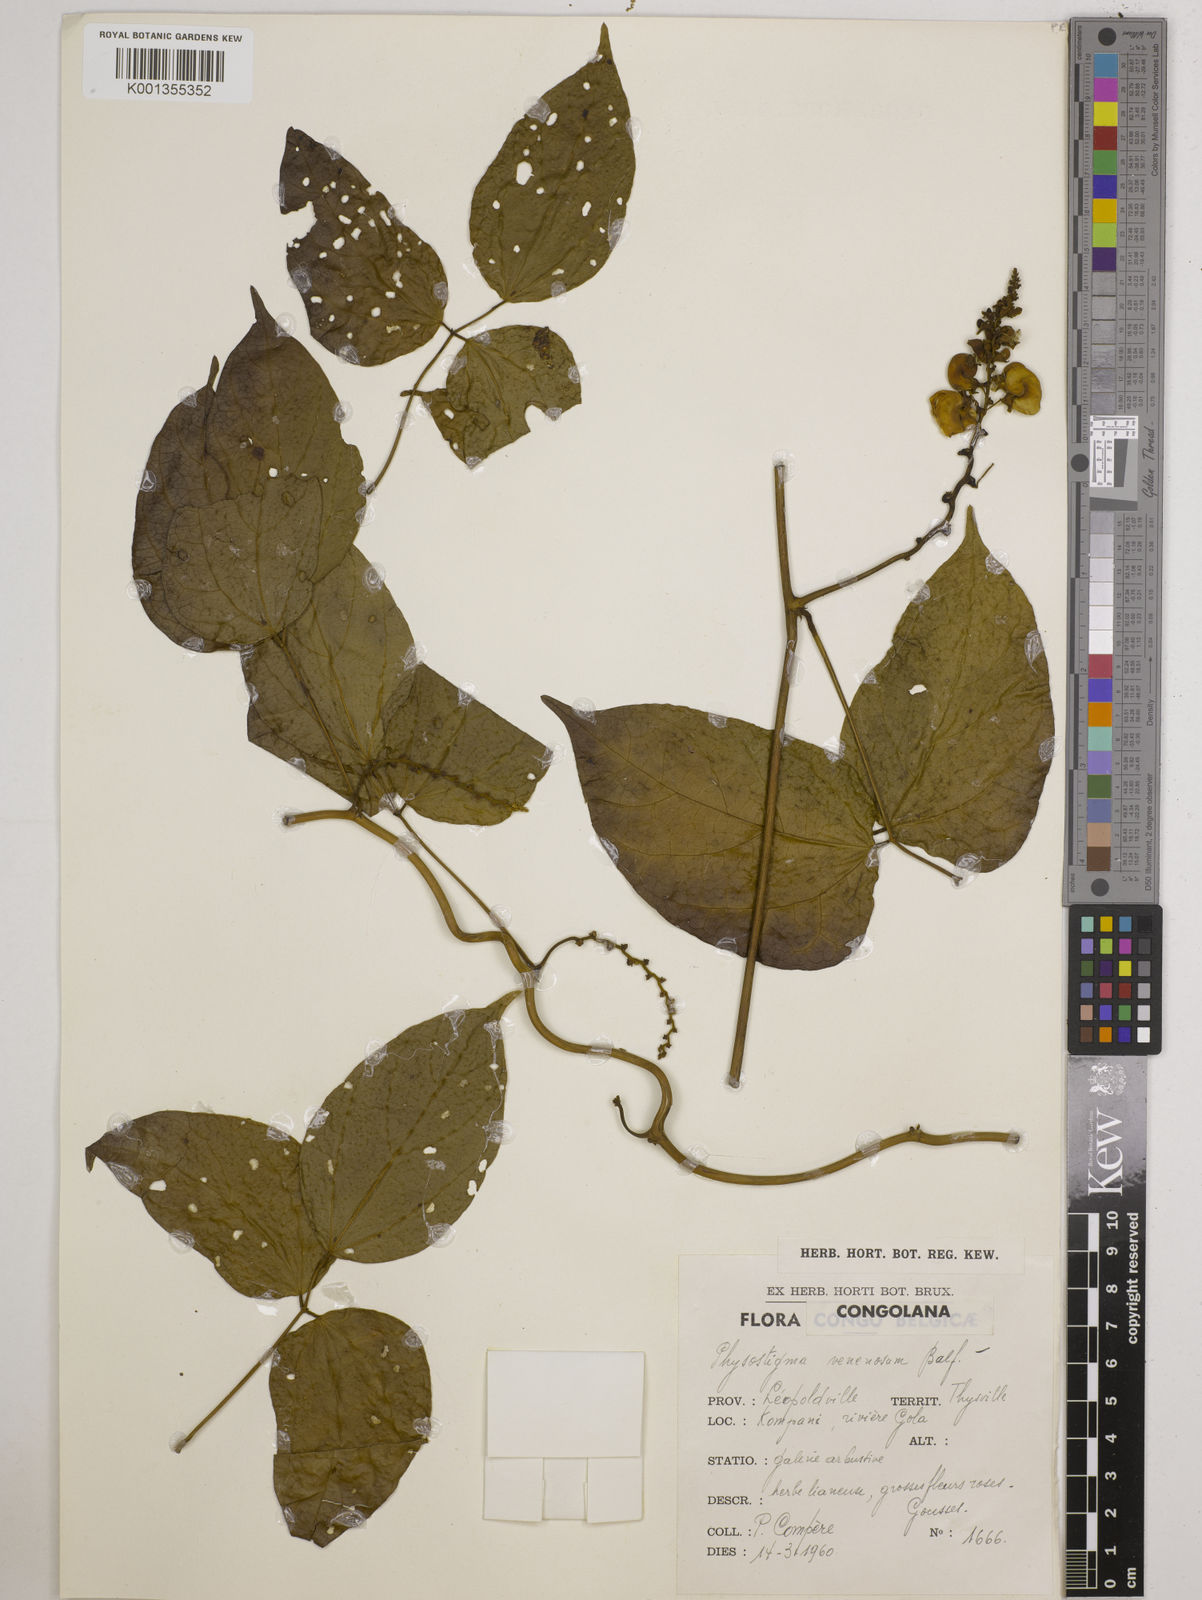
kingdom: Plantae
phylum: Tracheophyta
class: Magnoliopsida
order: Fabales
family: Fabaceae
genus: Physostigma
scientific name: Physostigma cylindrospermum
